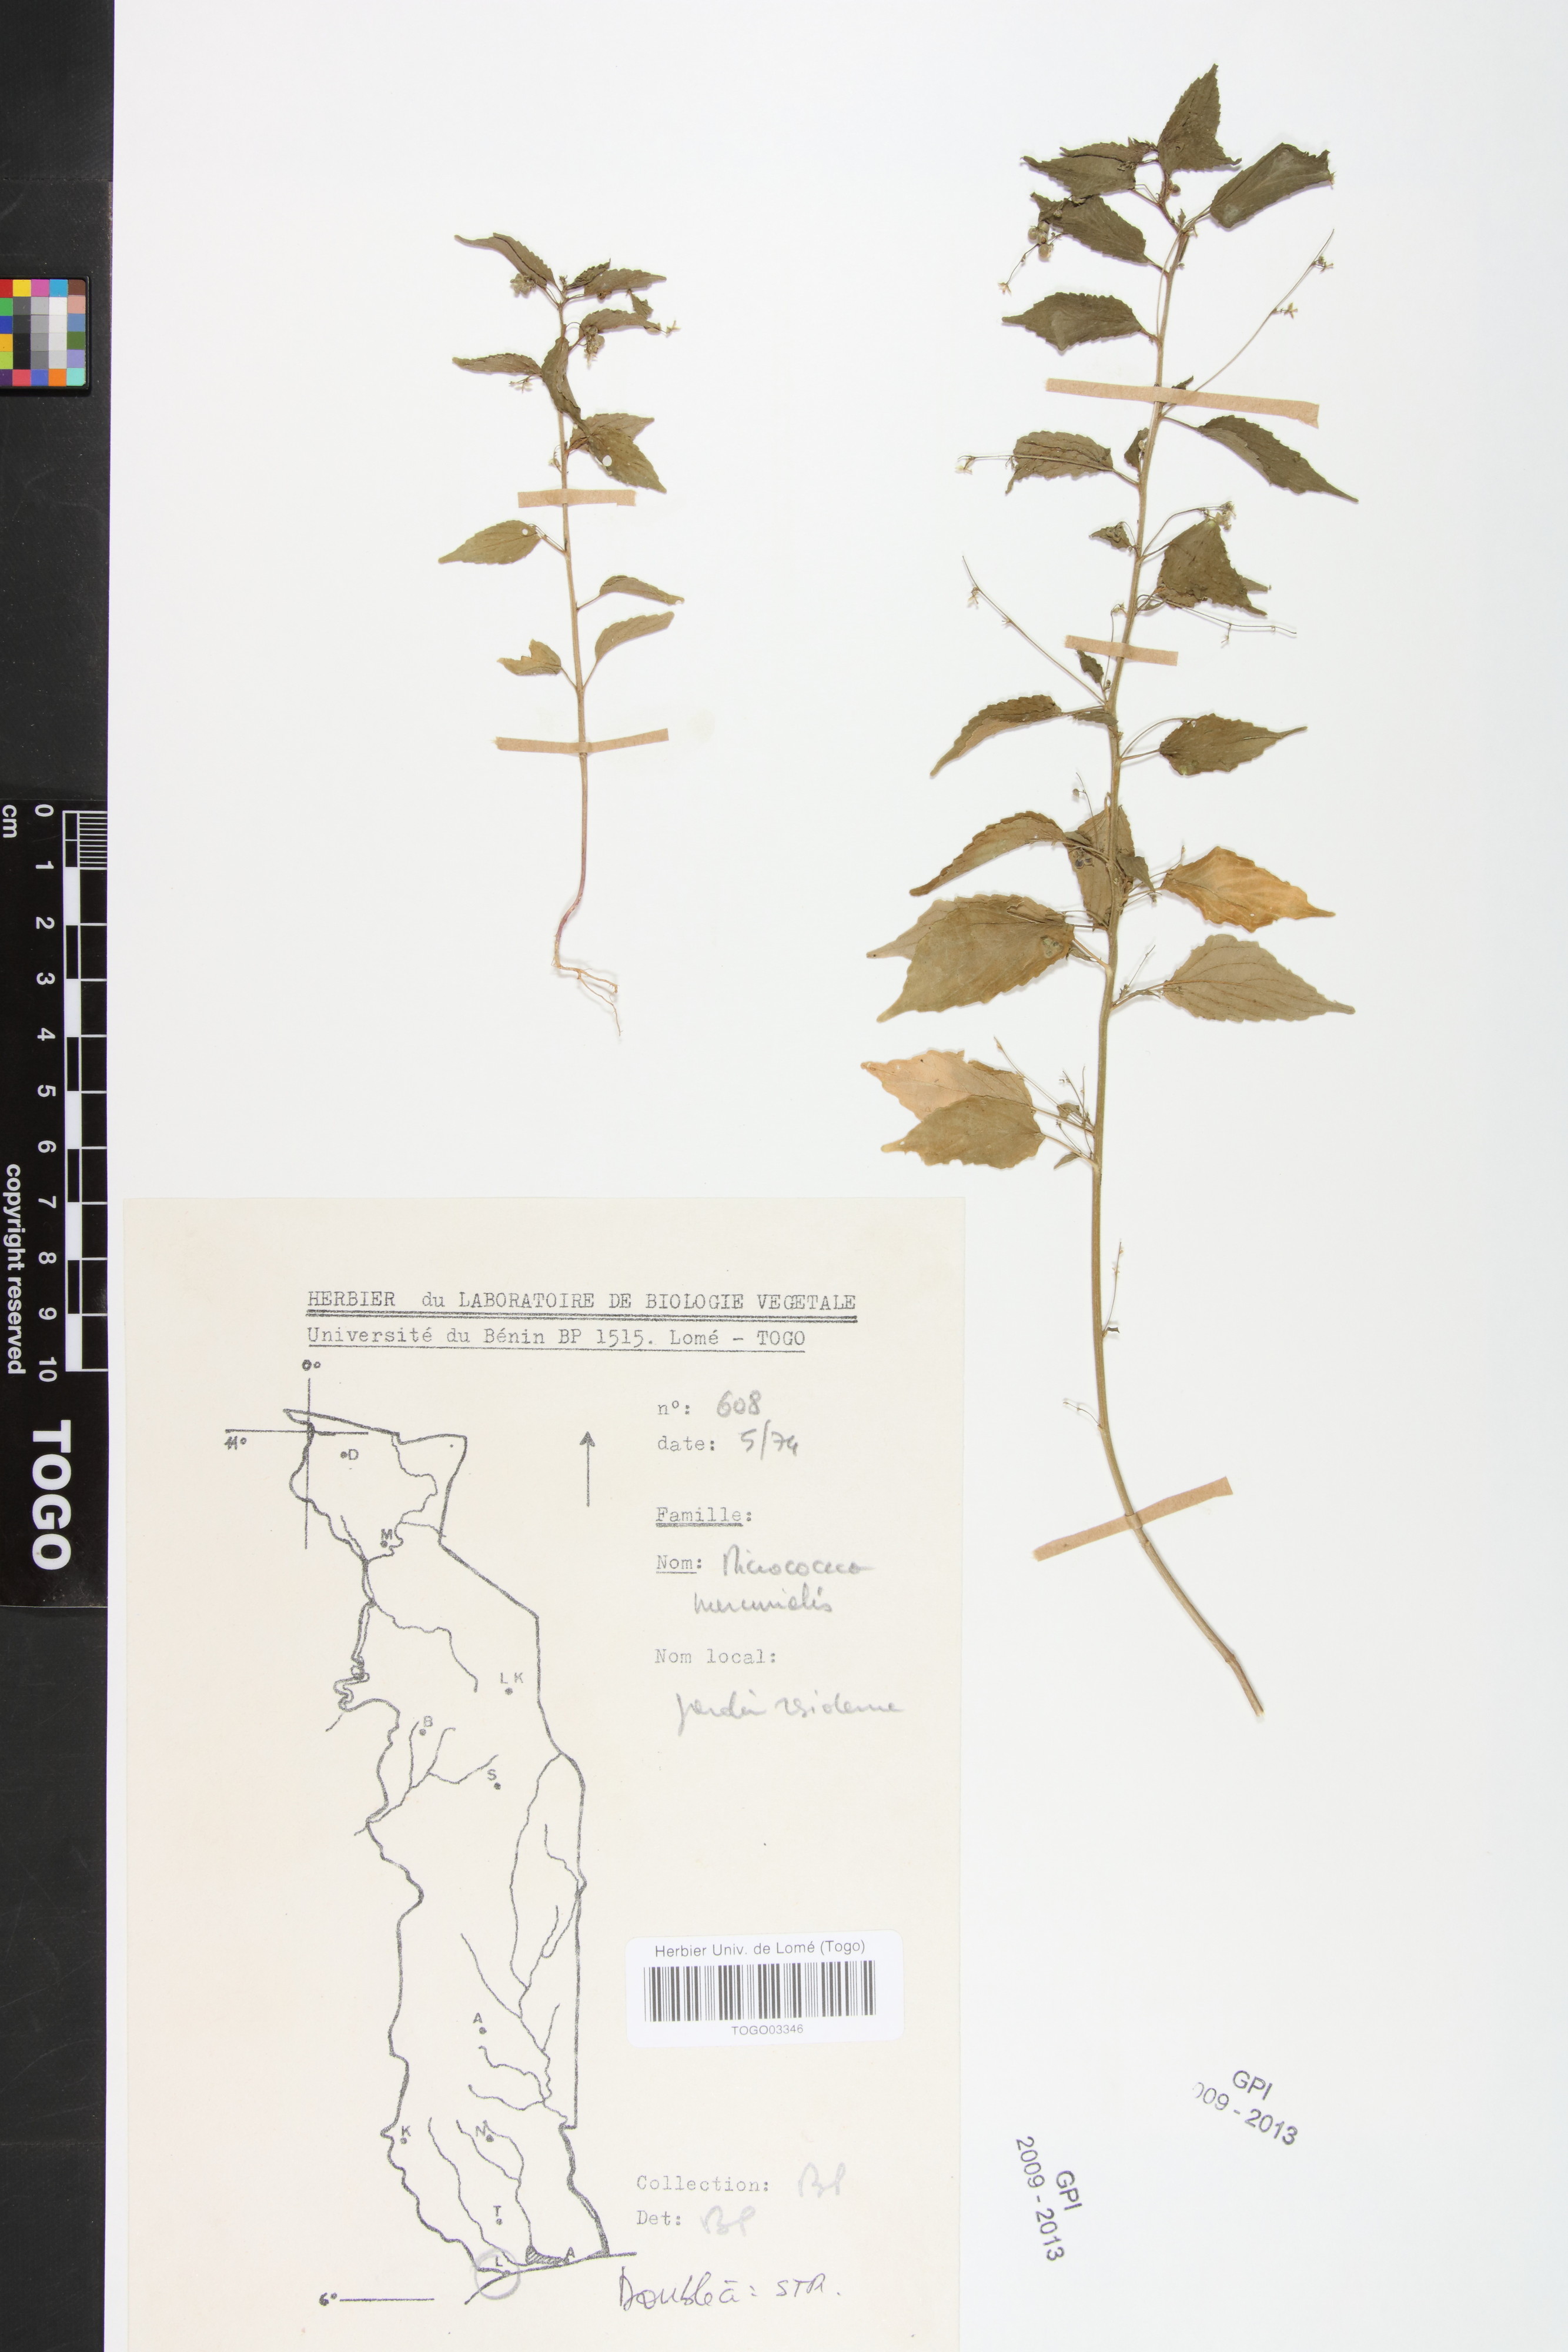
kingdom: Plantae
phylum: Tracheophyta
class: Magnoliopsida
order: Malpighiales
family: Euphorbiaceae
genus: Micrococca
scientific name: Micrococca mercurialis
